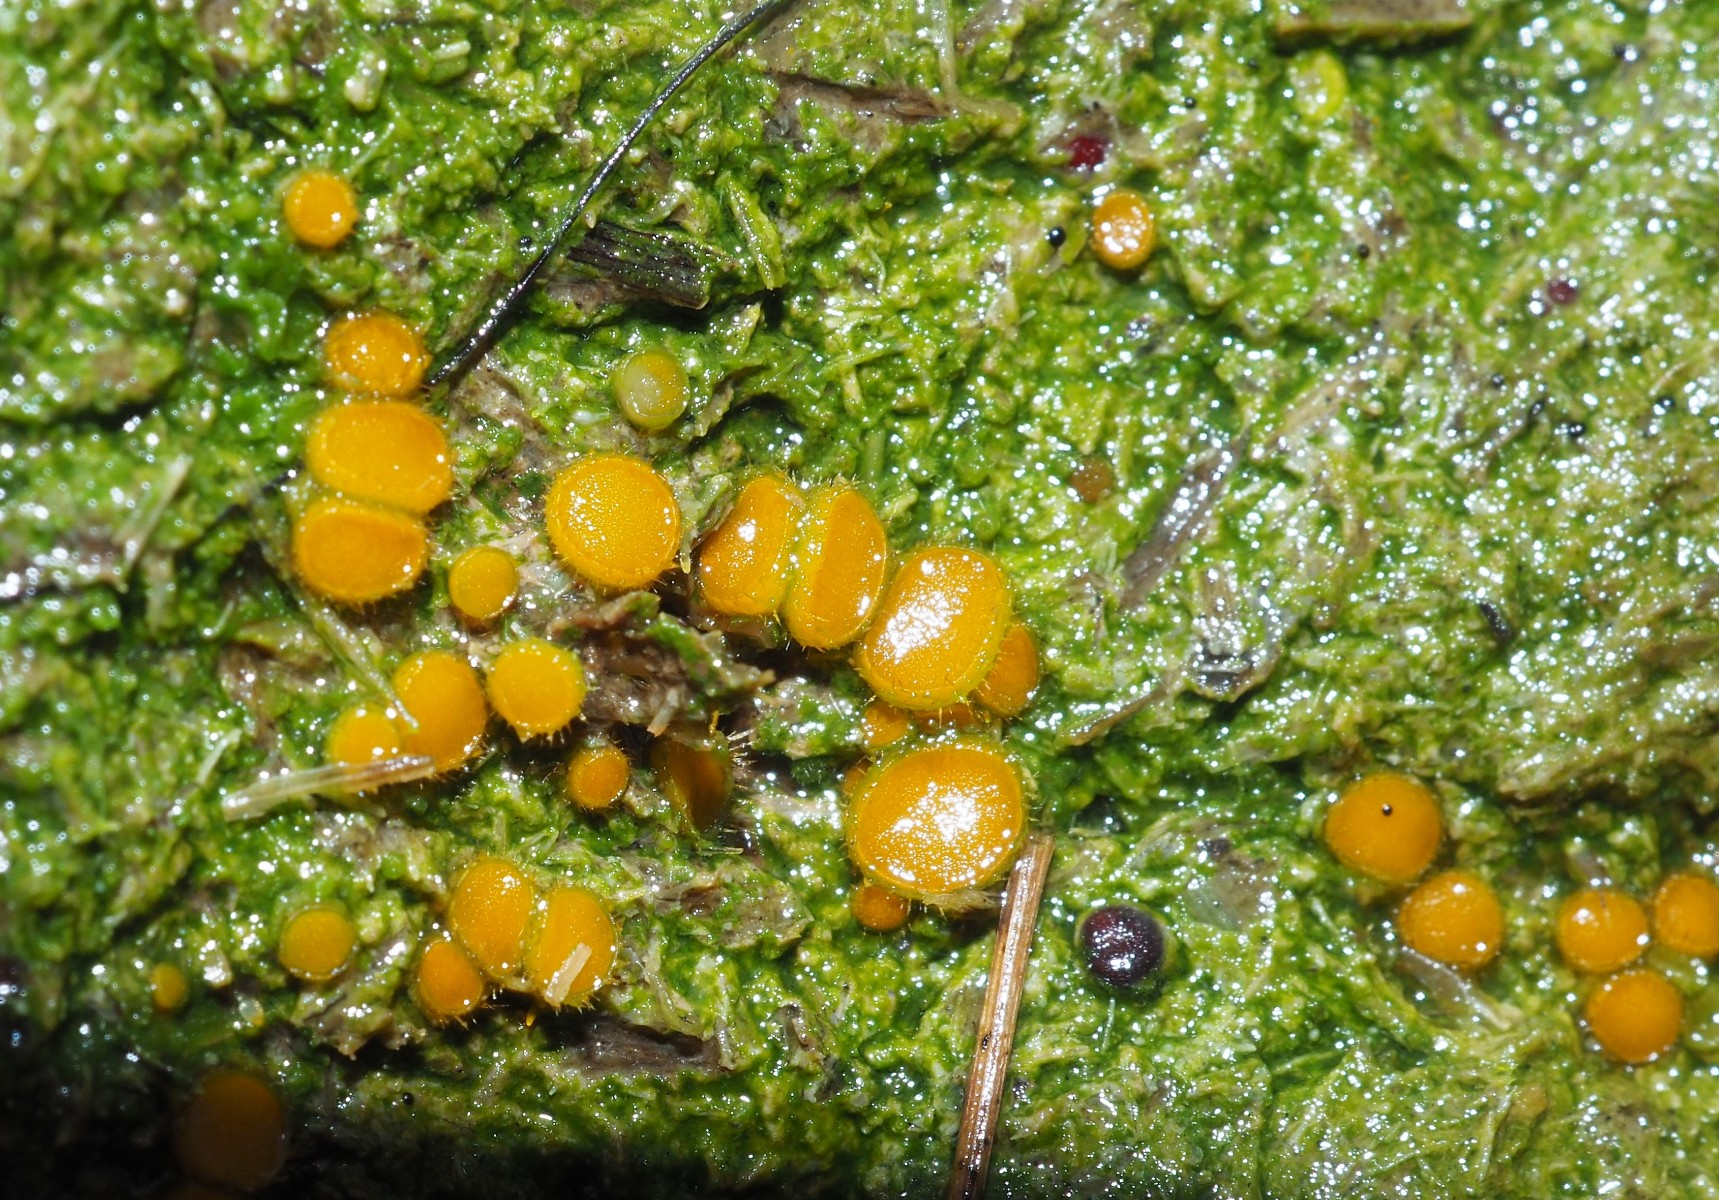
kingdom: Fungi
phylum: Ascomycota
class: Pezizomycetes
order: Pezizales
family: Pyronemataceae
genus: Cheilymenia
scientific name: Cheilymenia stercorea
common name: gødnings-hårbæger
